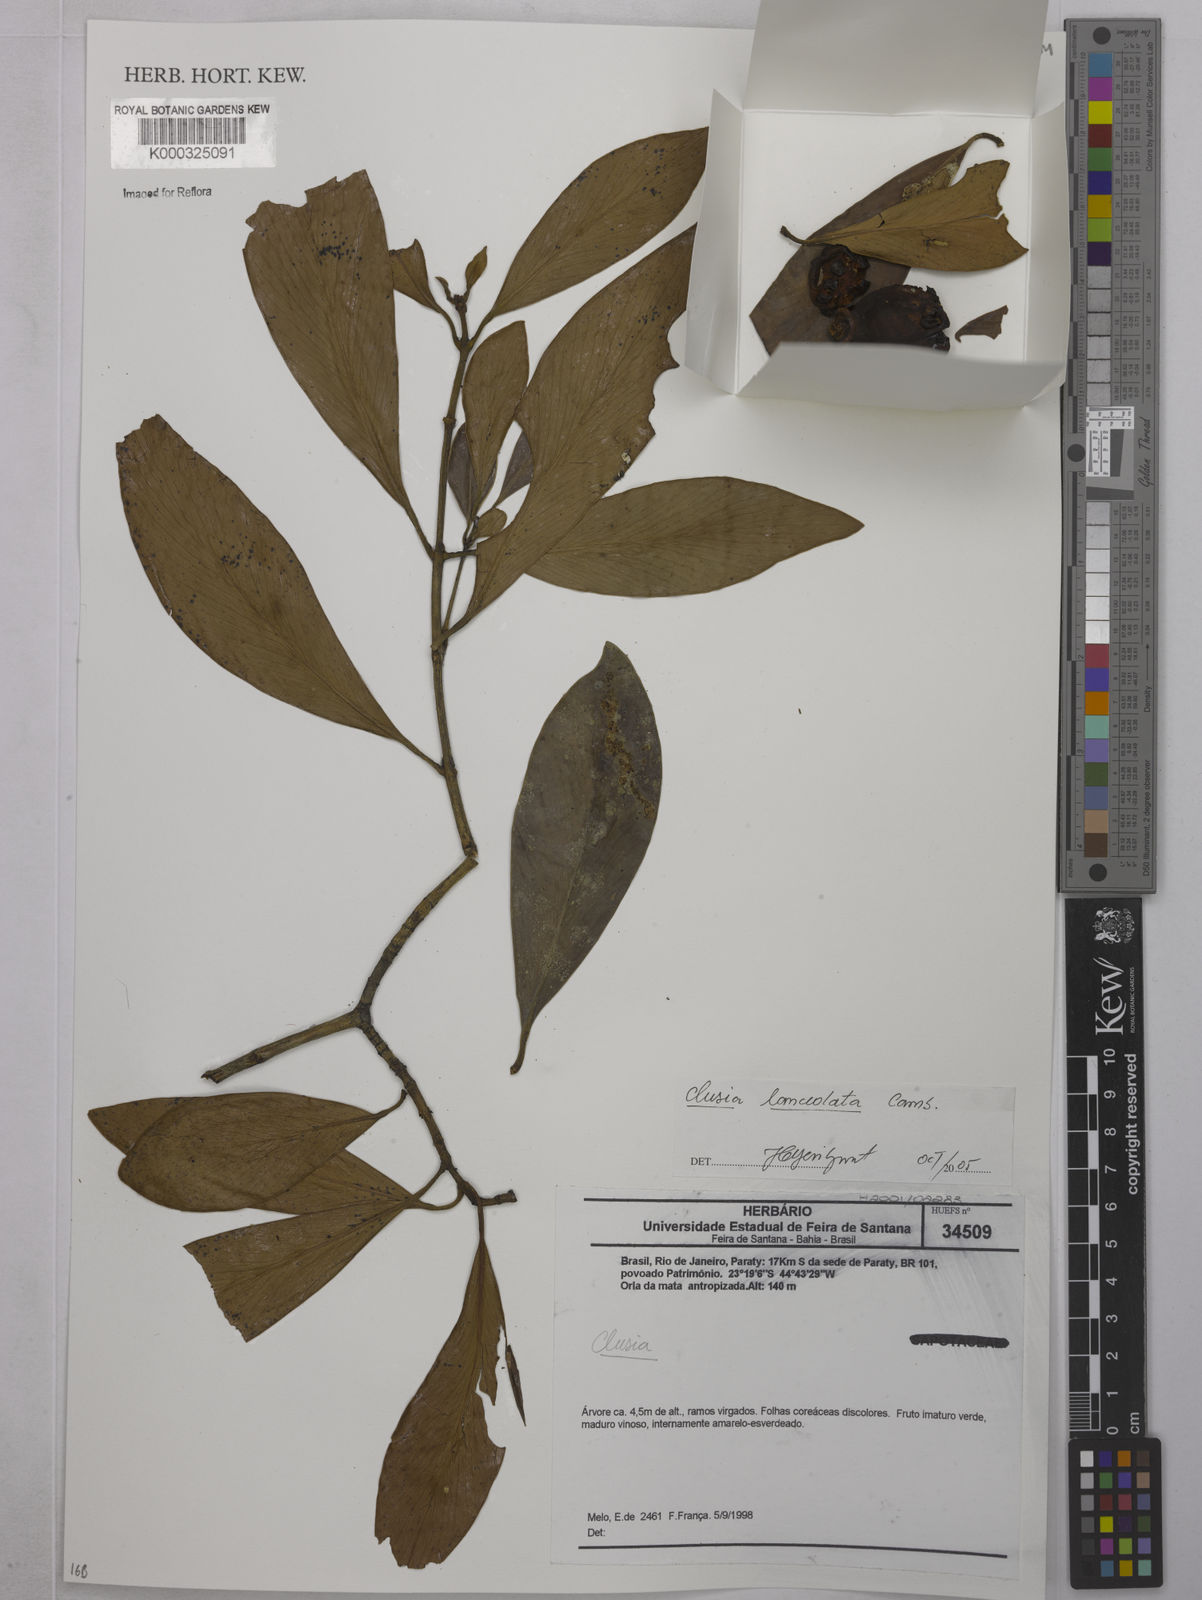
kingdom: Plantae
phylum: Tracheophyta
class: Magnoliopsida
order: Malpighiales
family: Clusiaceae
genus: Clusia
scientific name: Clusia lanceolata
